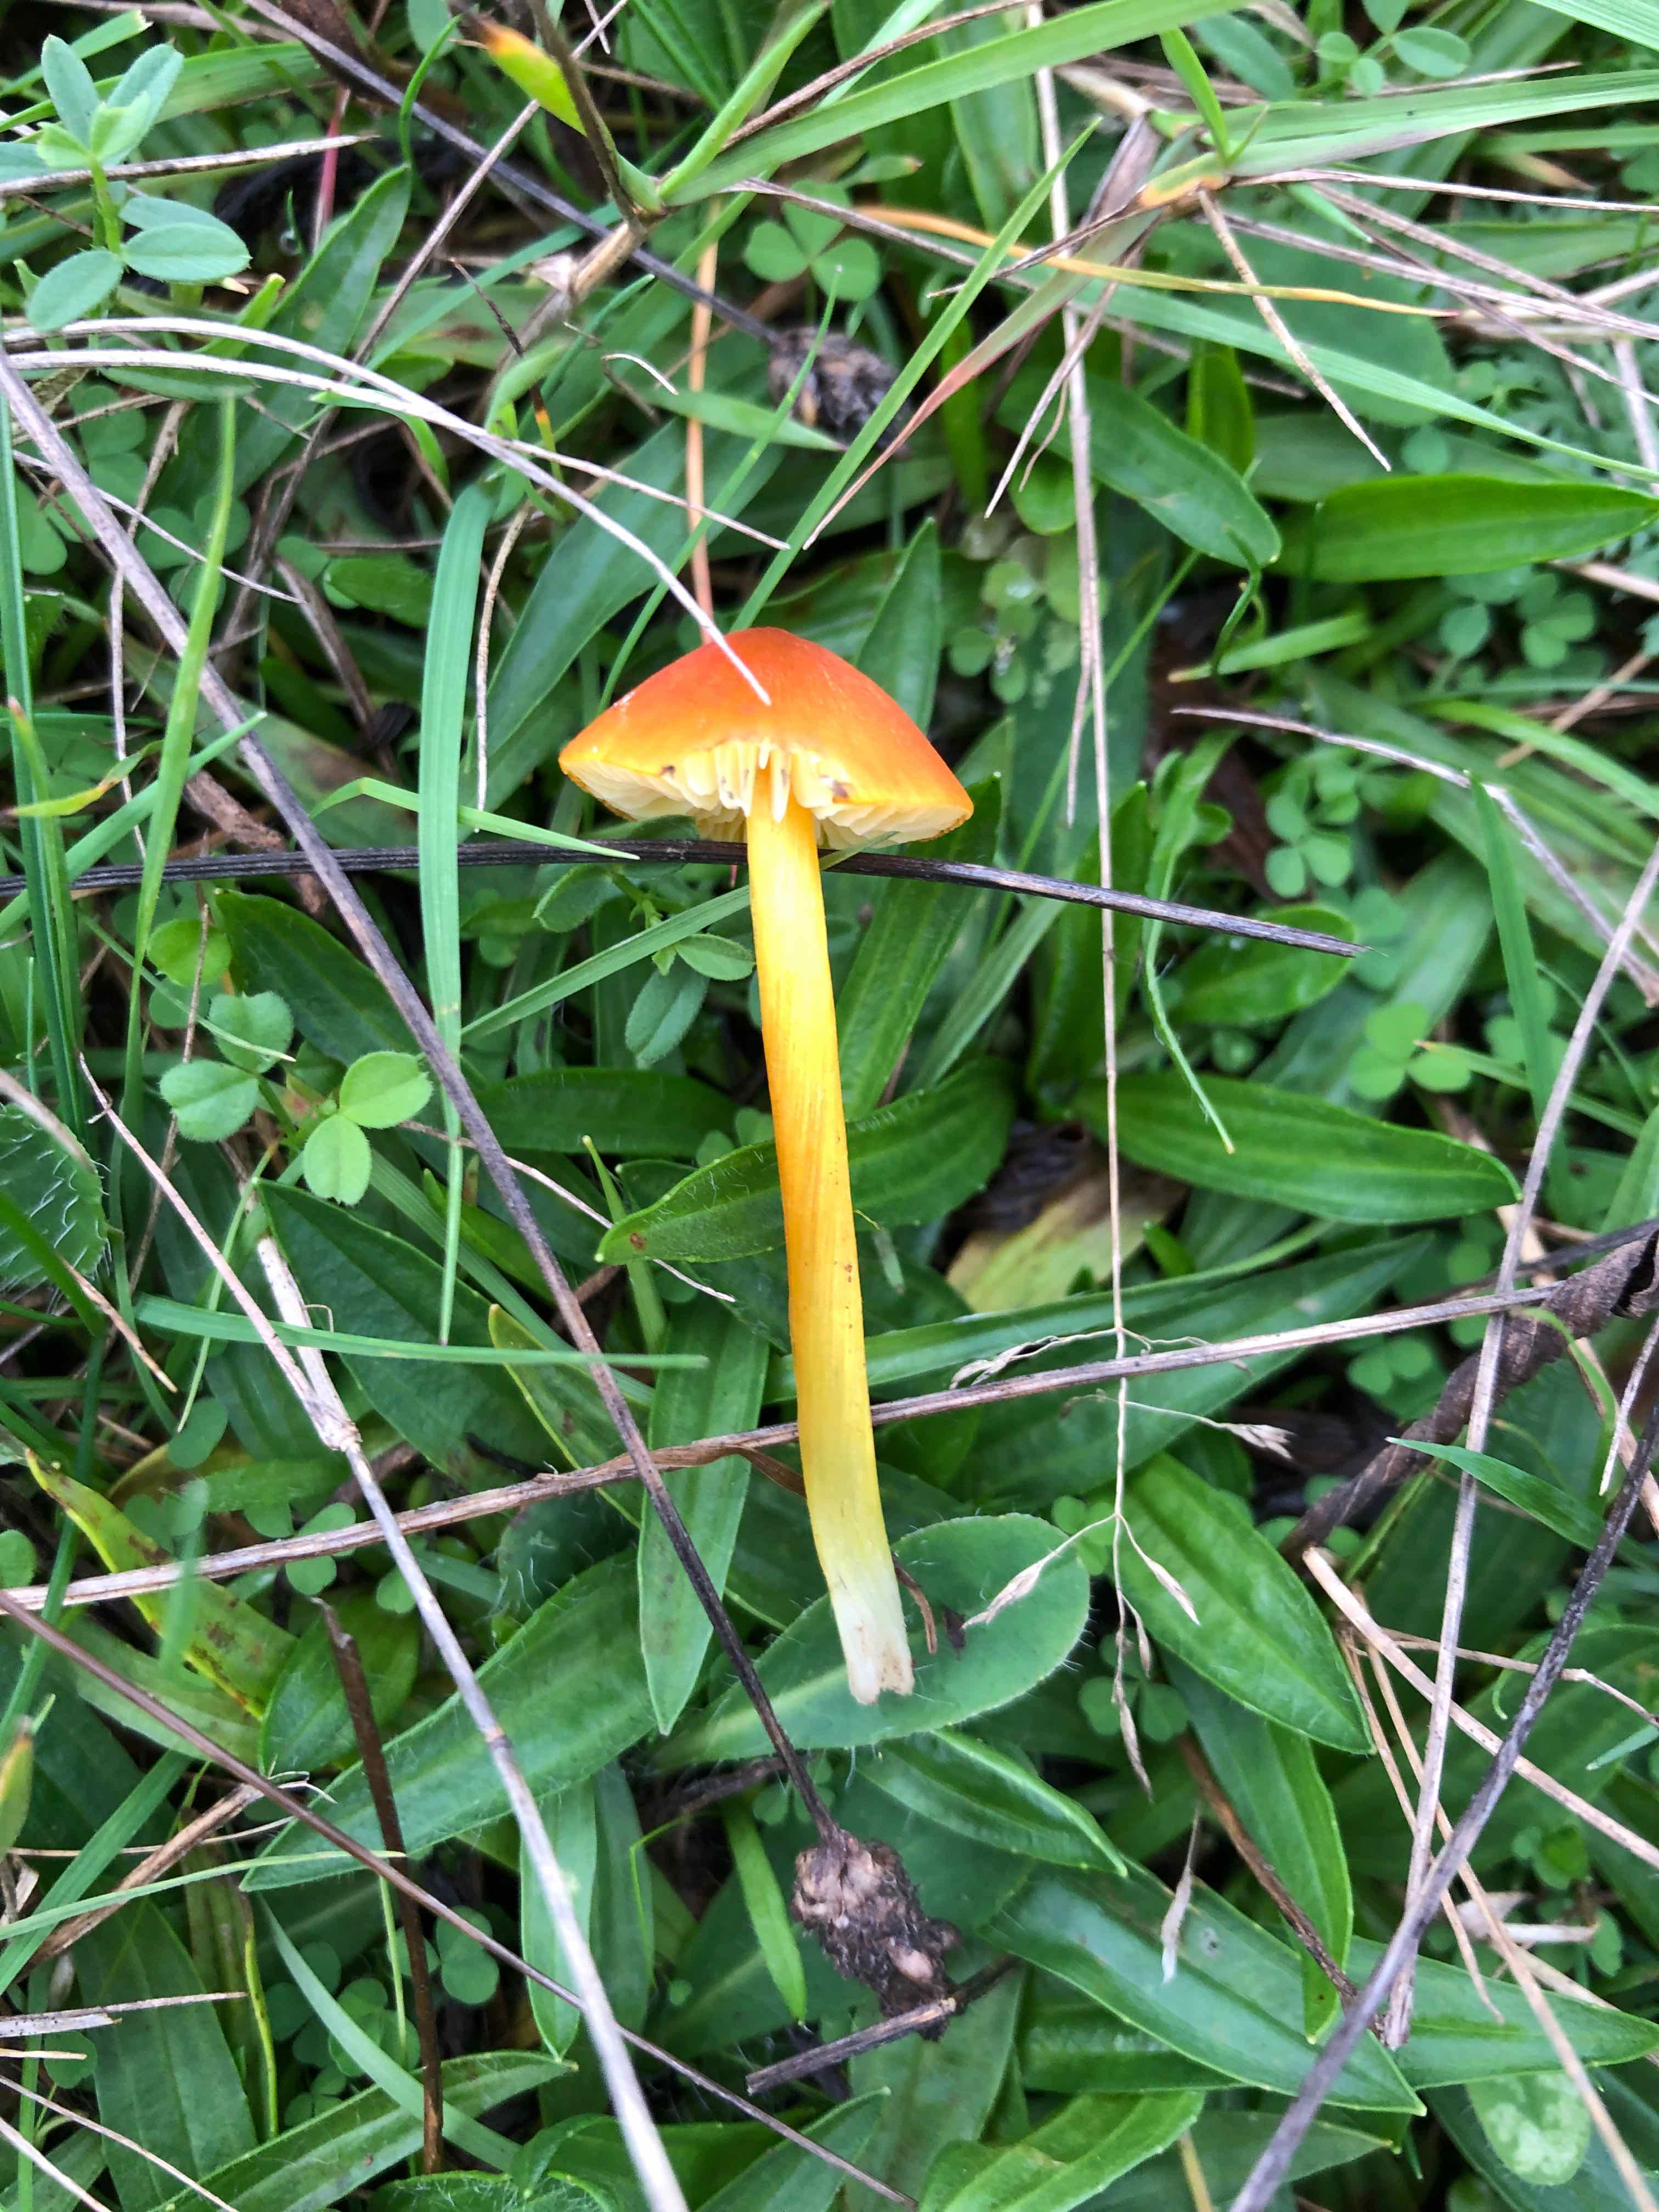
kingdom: Fungi
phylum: Basidiomycota
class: Agaricomycetes
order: Agaricales
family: Hygrophoraceae
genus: Hygrocybe
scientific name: Hygrocybe conica
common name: kegle-vokshat
